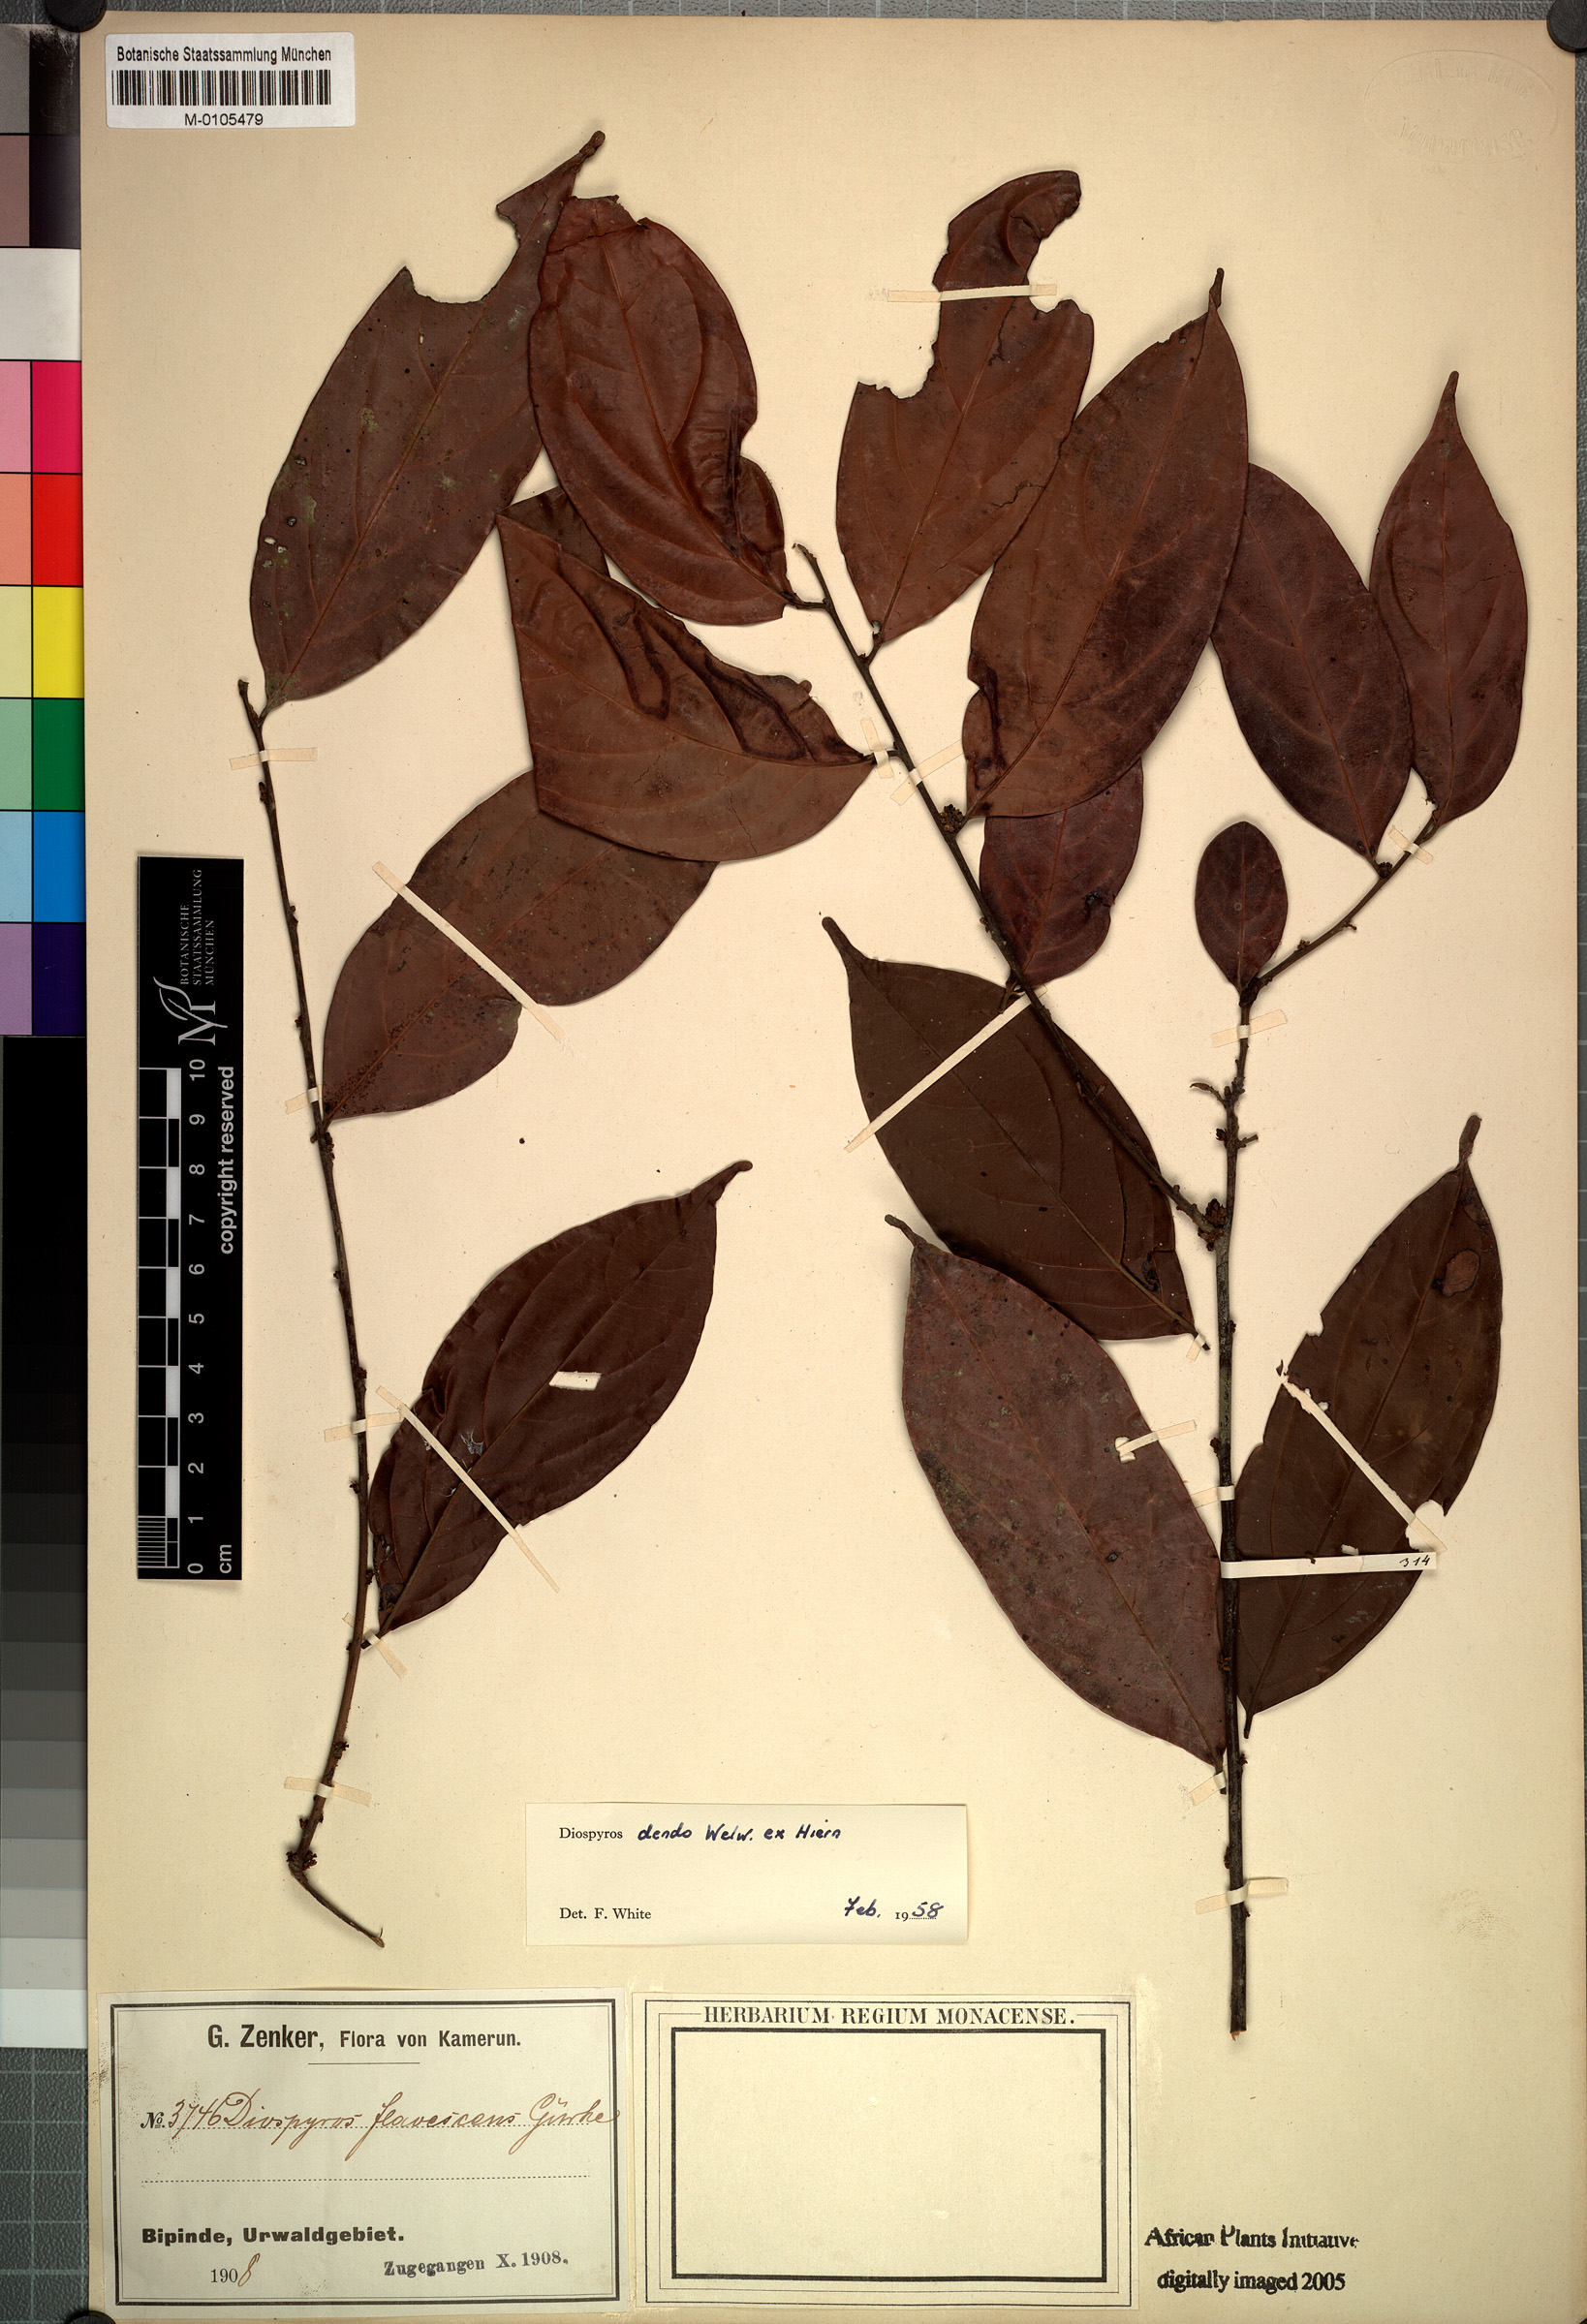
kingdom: Plantae
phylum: Tracheophyta
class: Magnoliopsida
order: Ericales
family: Ebenaceae
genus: Diospyros
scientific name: Diospyros dendo
